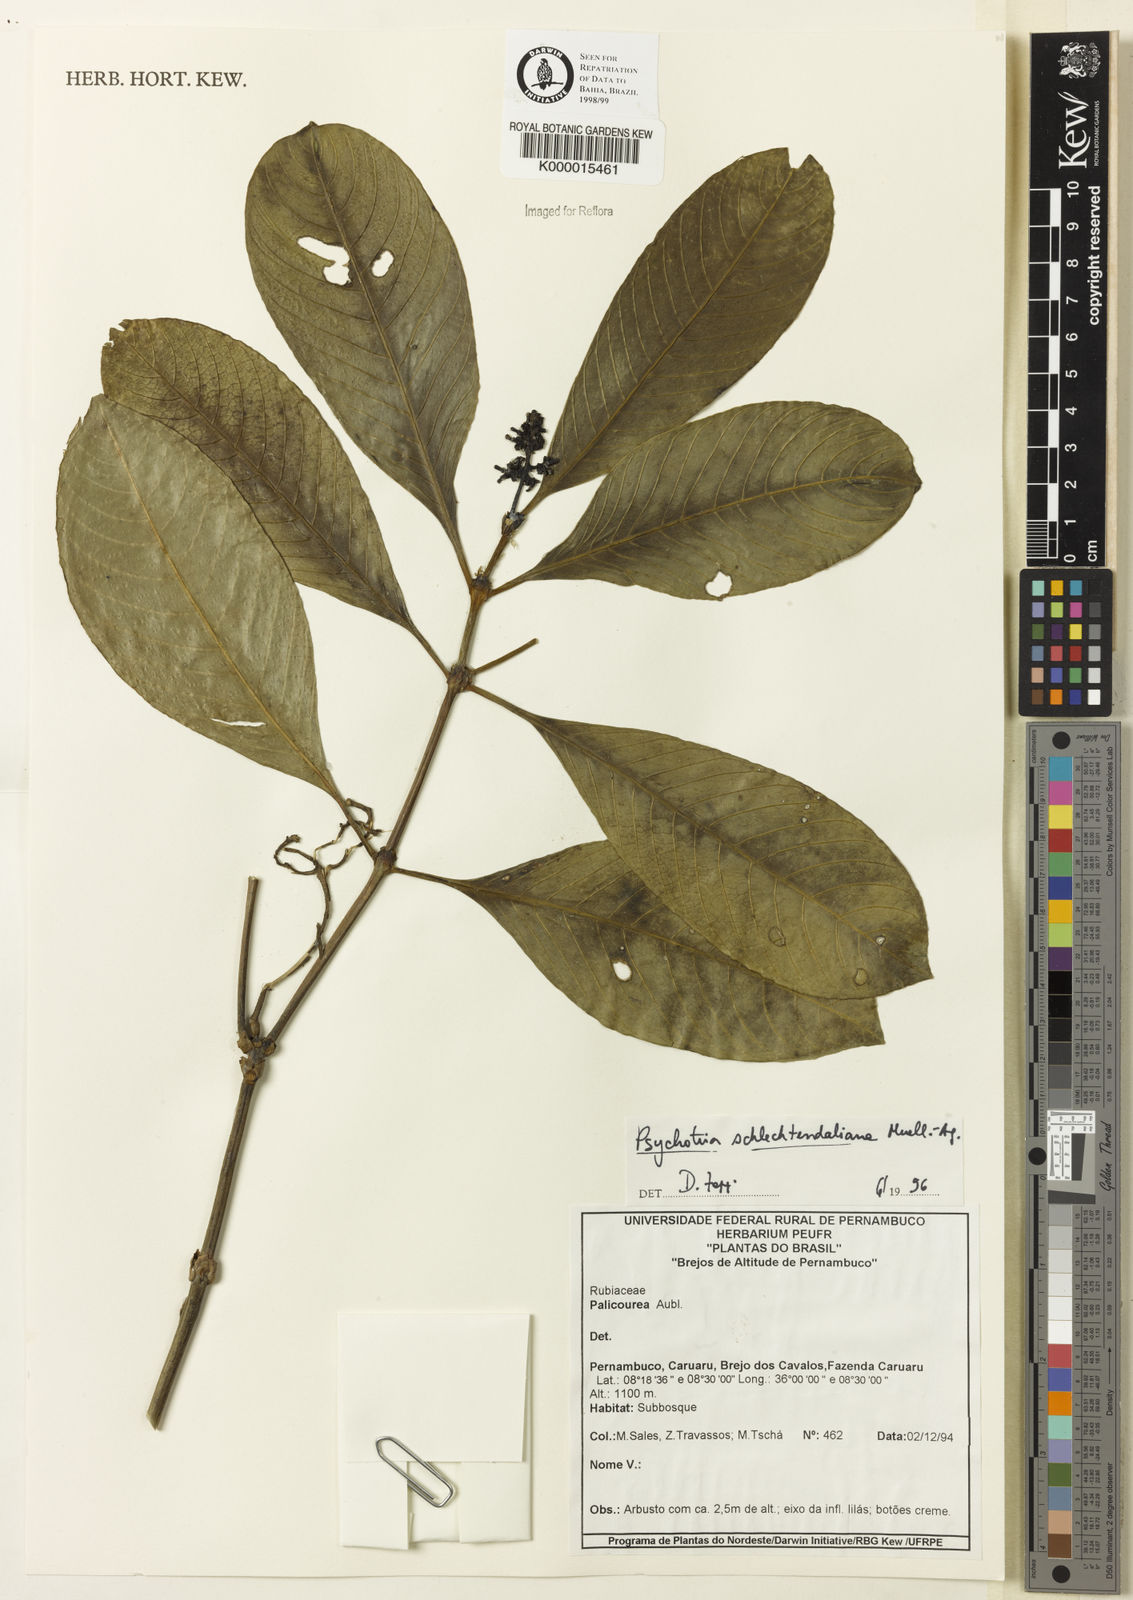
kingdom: Plantae
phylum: Tracheophyta
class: Magnoliopsida
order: Gentianales
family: Rubiaceae
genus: Rudgea
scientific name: Rudgea coriacea
